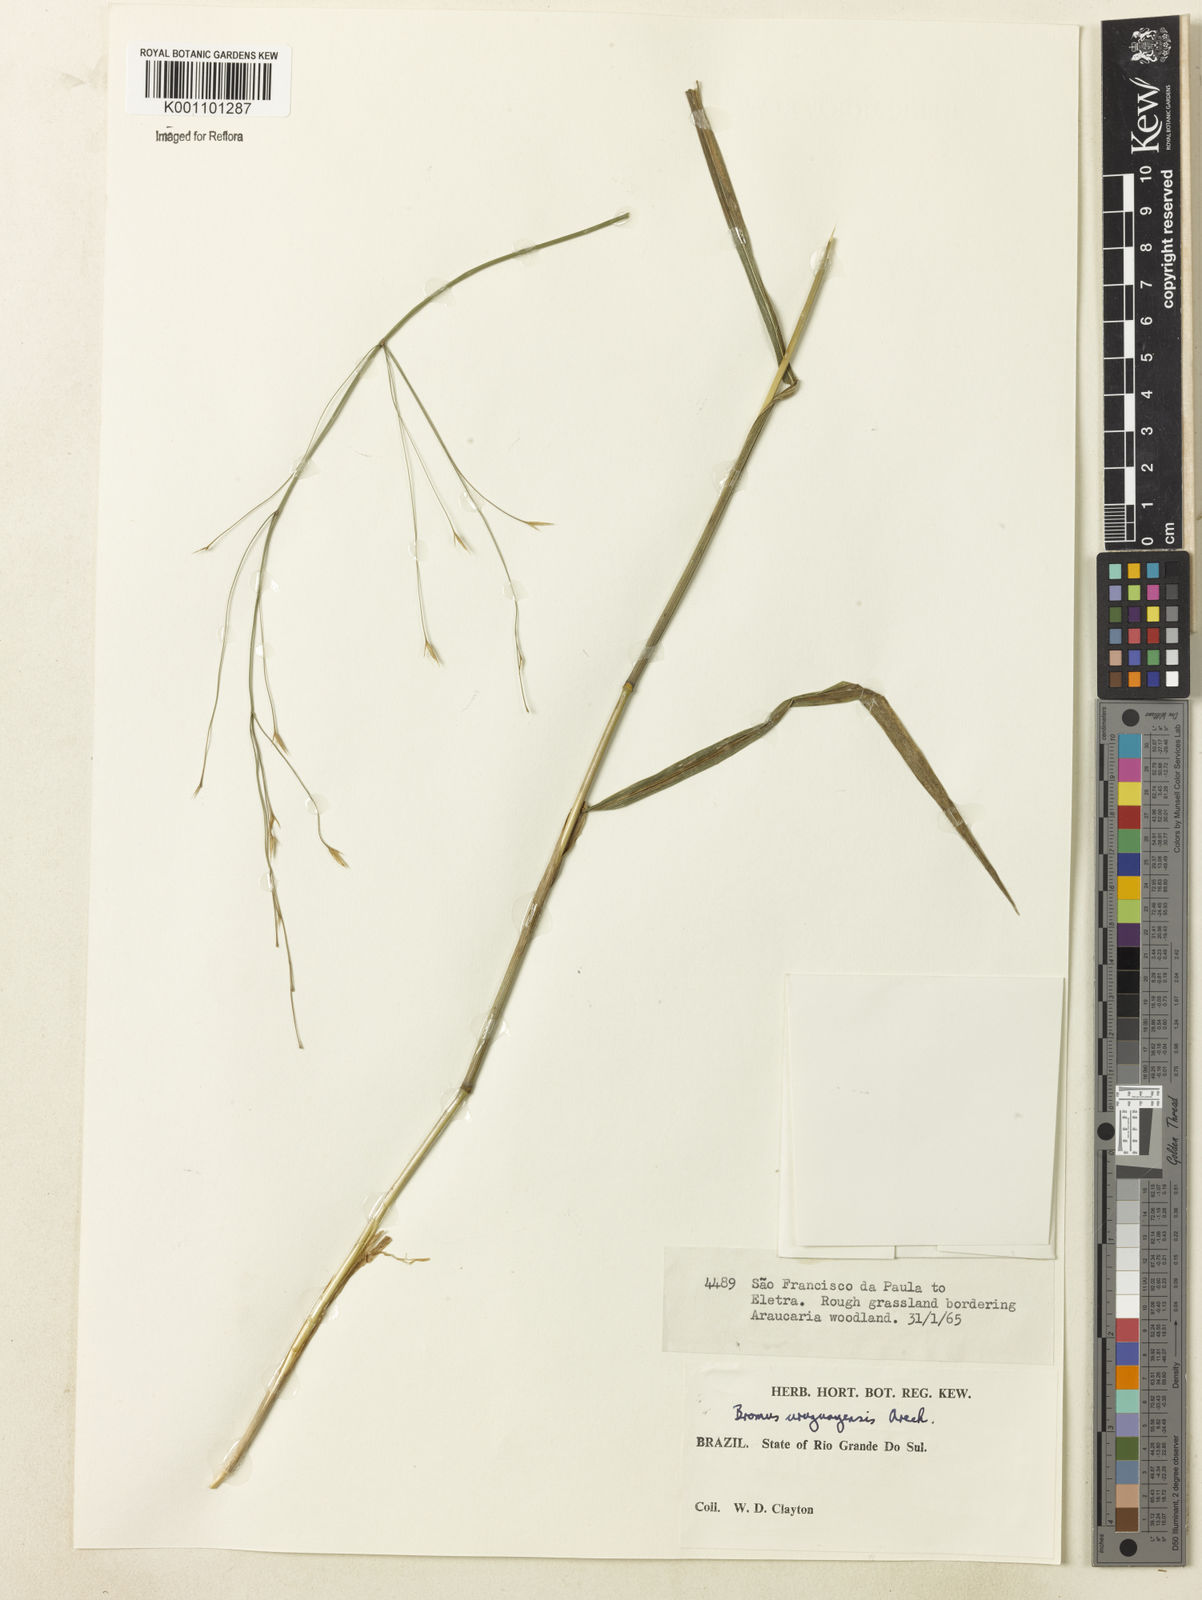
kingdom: Plantae
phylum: Tracheophyta
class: Liliopsida
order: Poales
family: Poaceae
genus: Bromus
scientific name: Bromus
